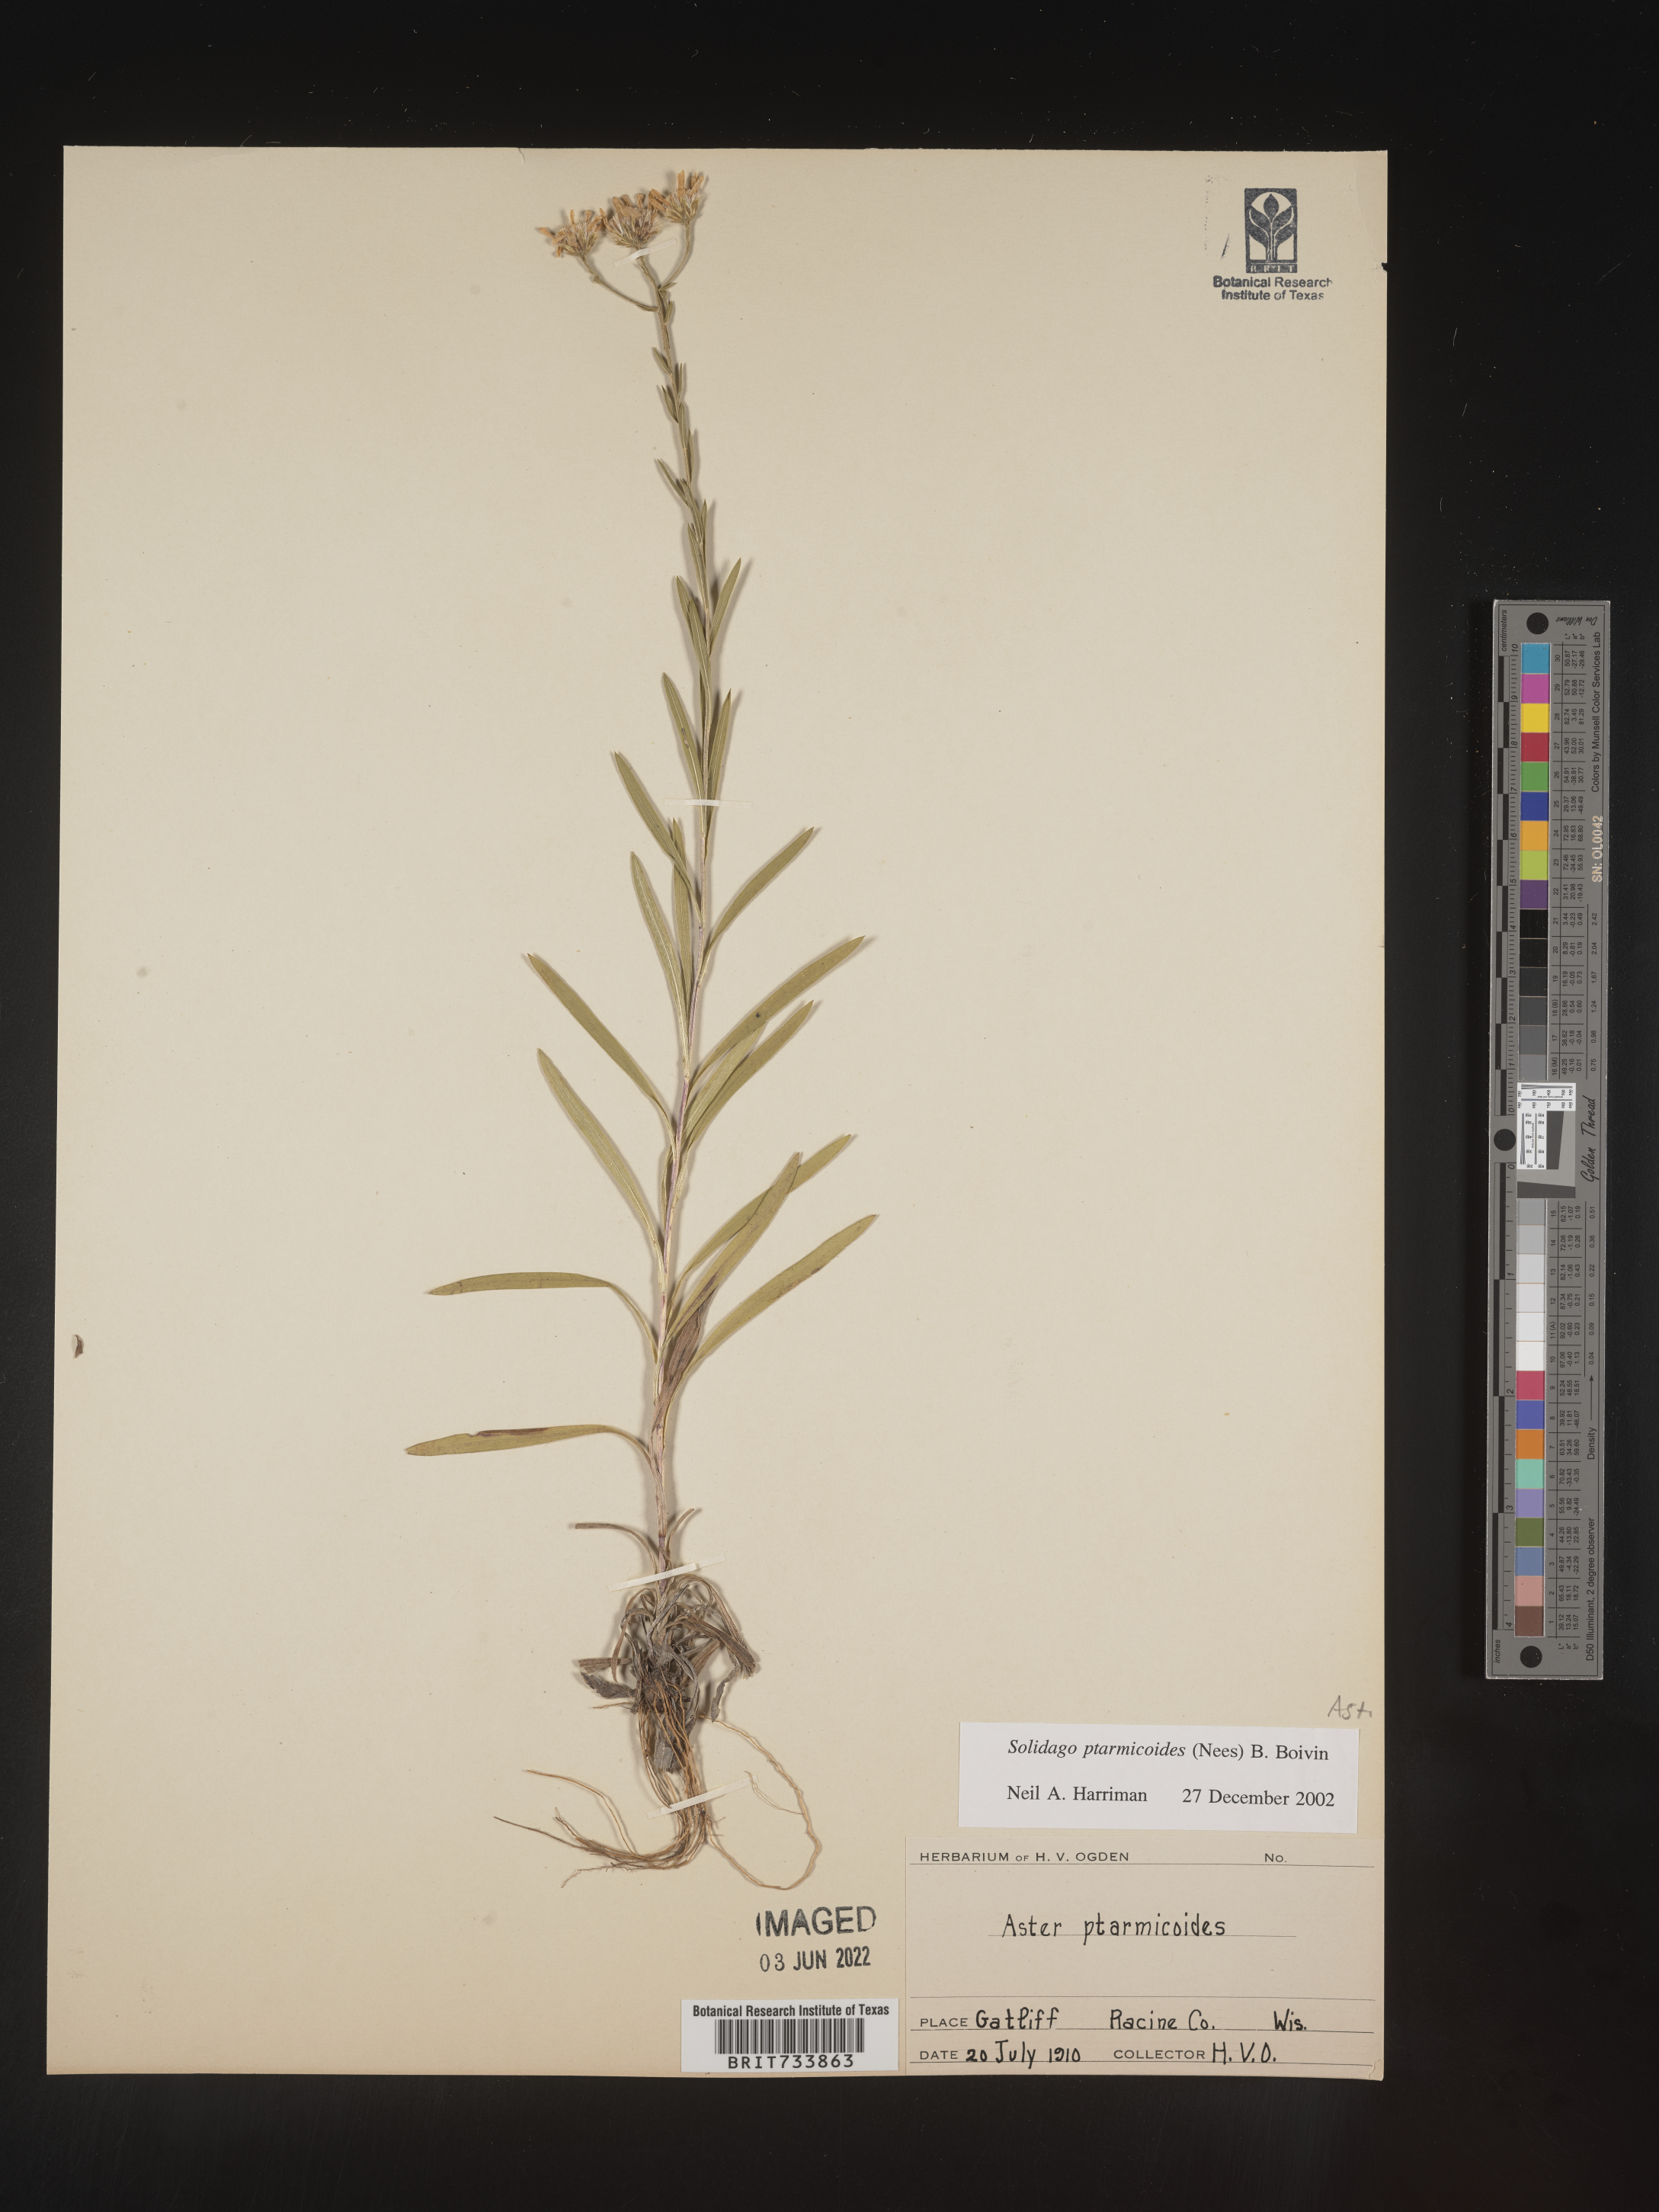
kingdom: Plantae
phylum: Tracheophyta
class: Magnoliopsida
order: Asterales
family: Asteraceae
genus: Solidago
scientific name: Solidago ptarmicoides
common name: White flat-top goldenrod
